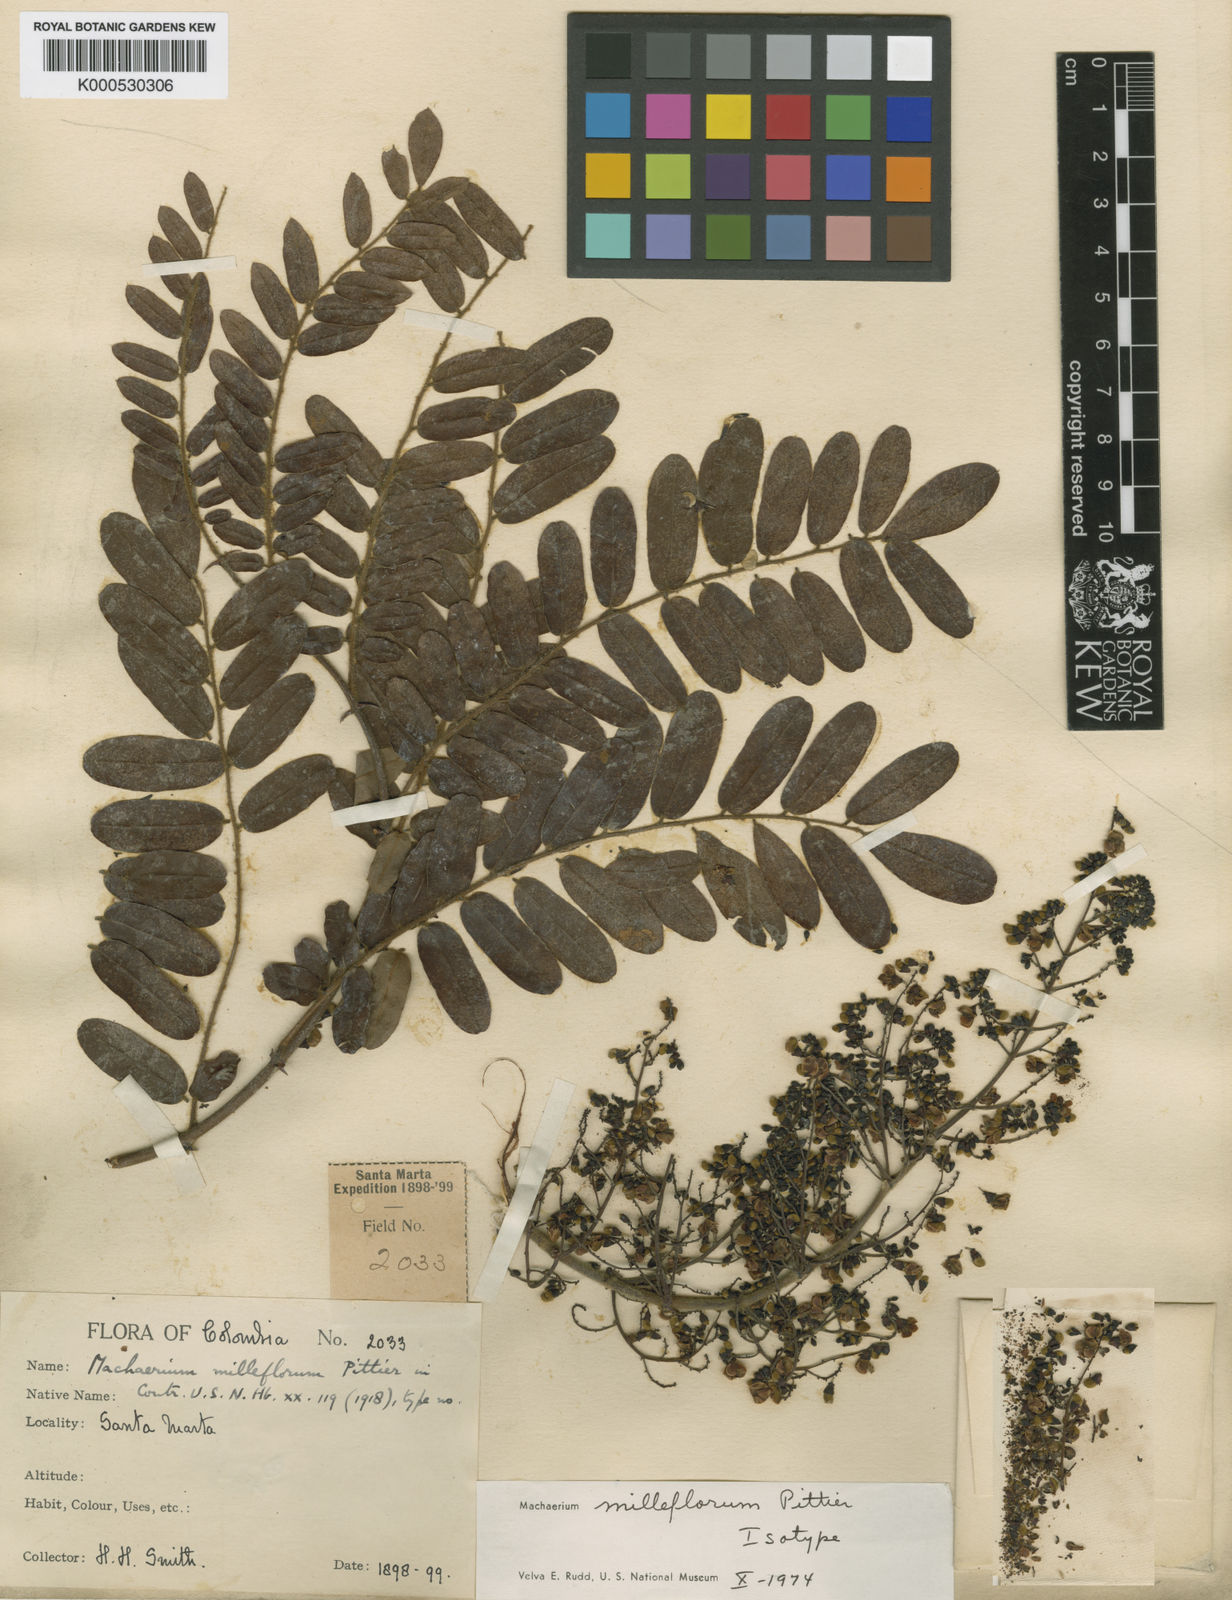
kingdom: Plantae
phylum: Tracheophyta
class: Magnoliopsida
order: Fabales
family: Fabaceae
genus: Machaerium
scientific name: Machaerium milleflorum
